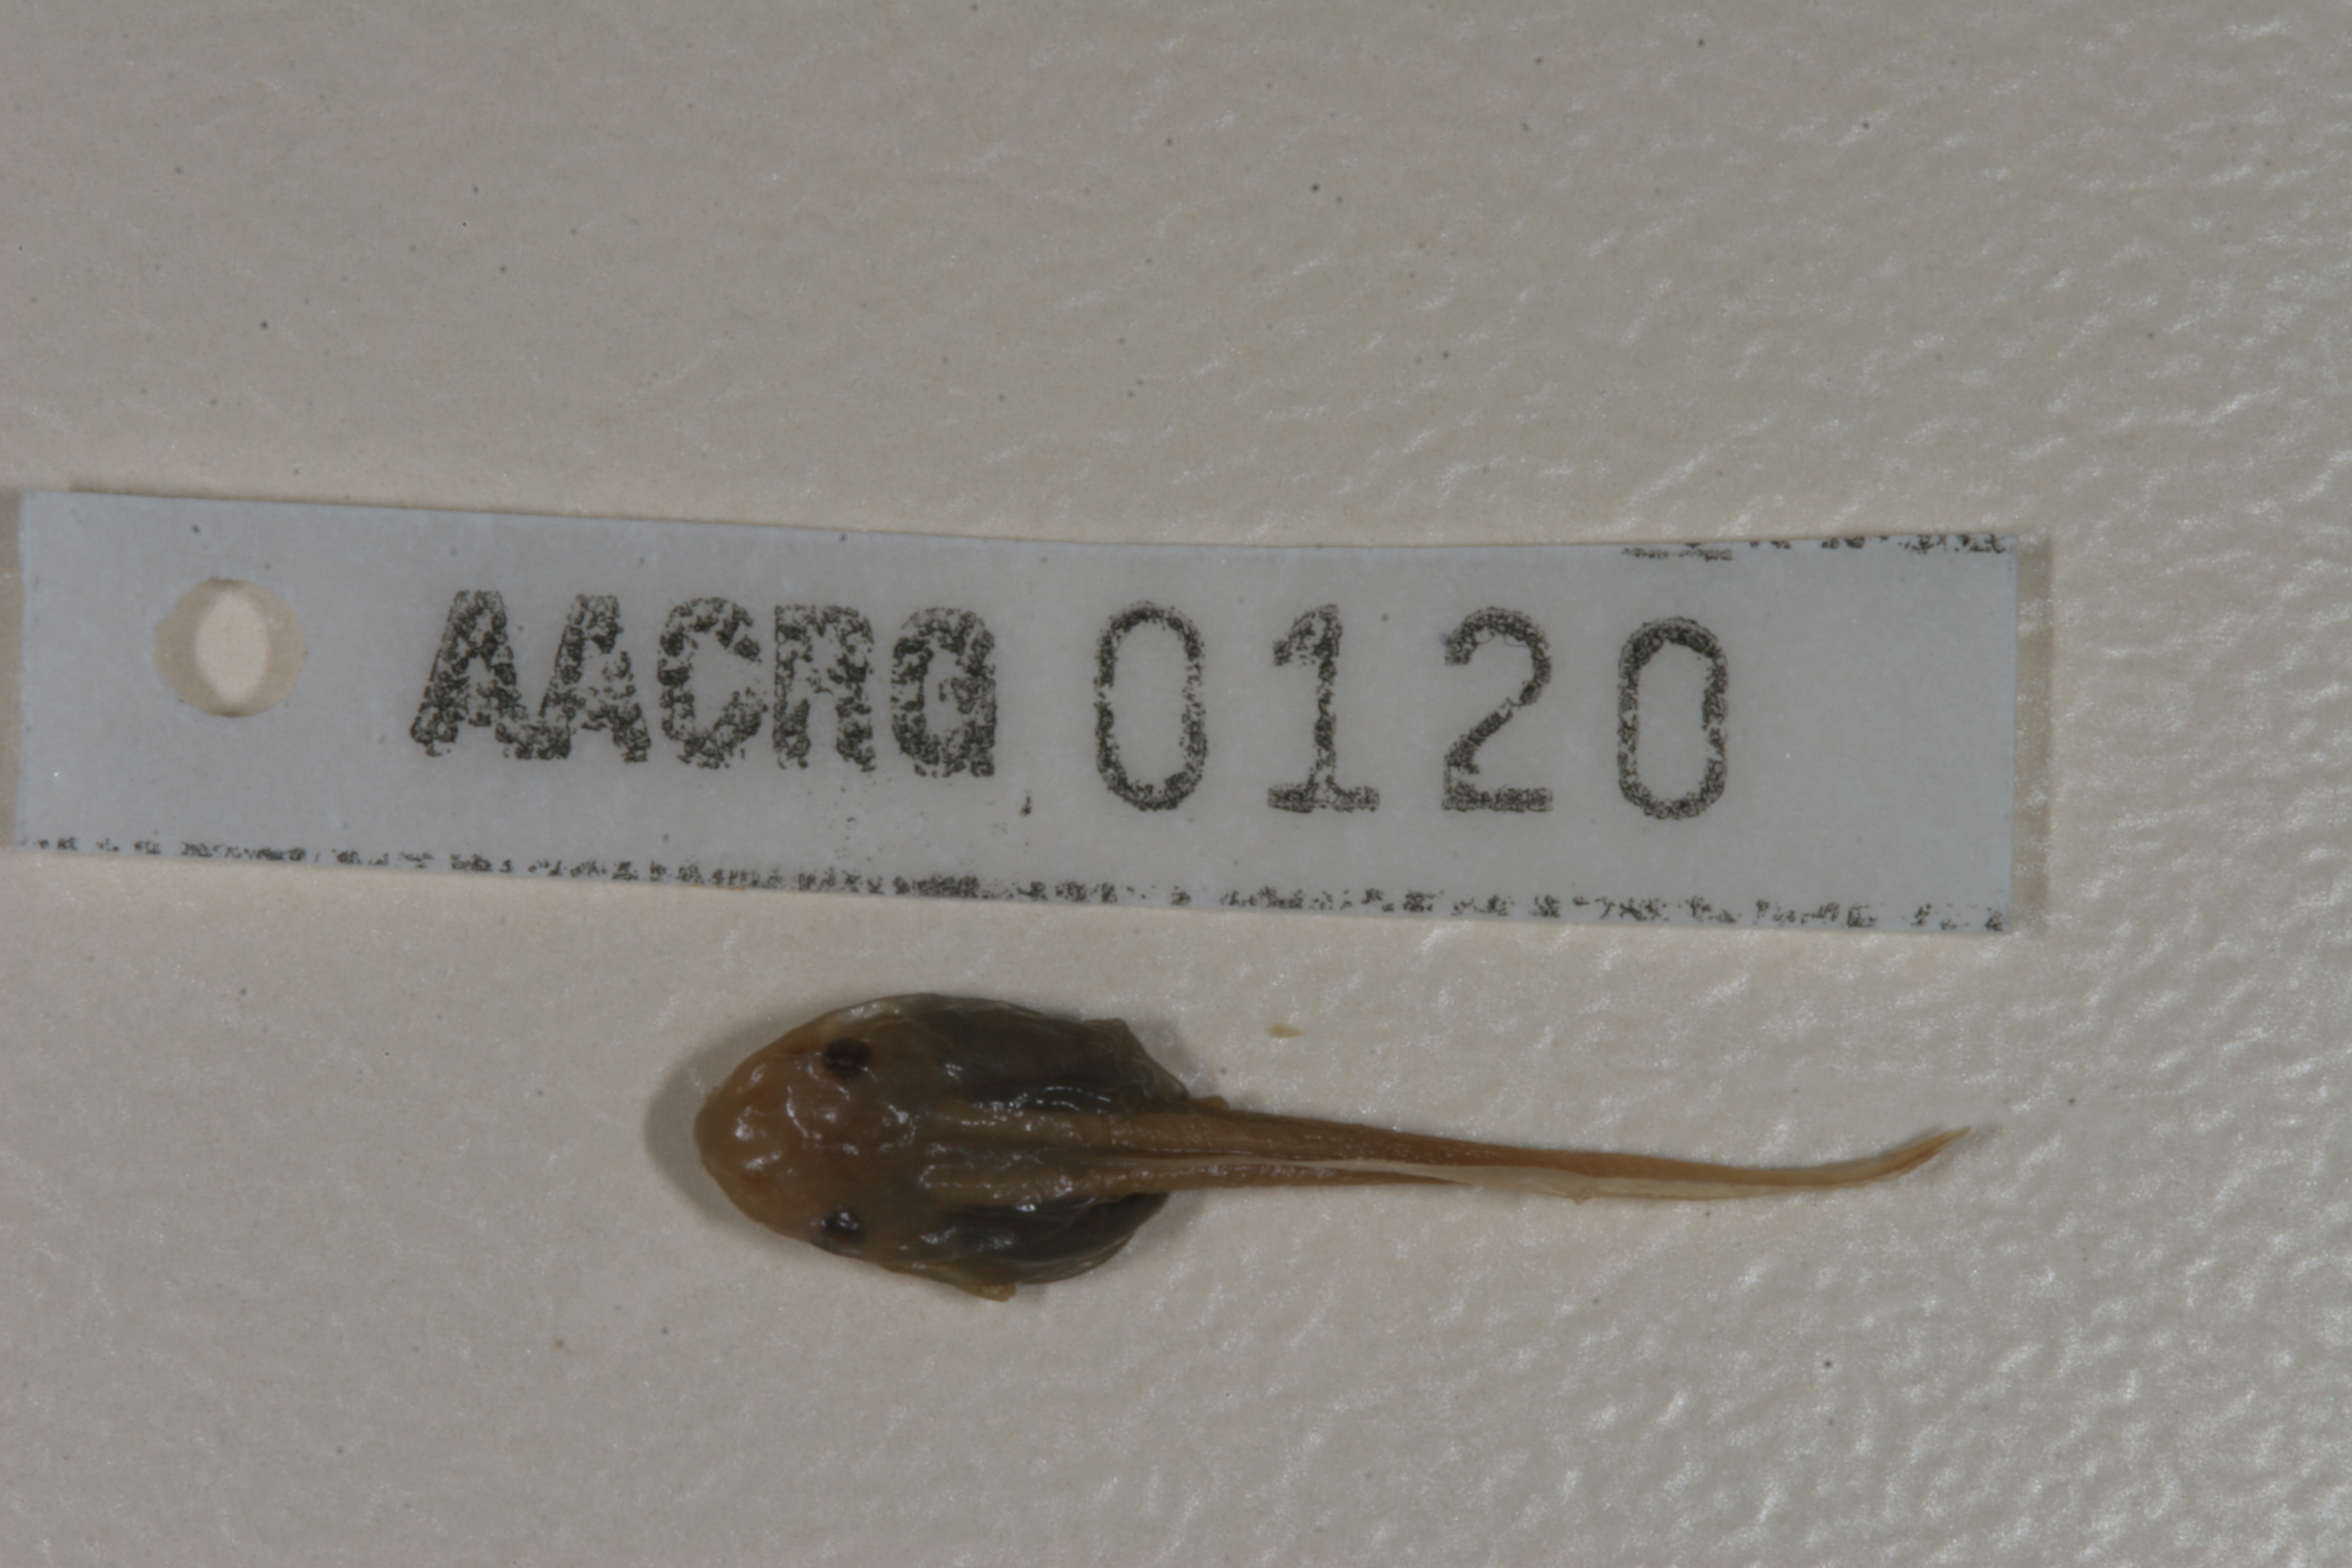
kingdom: Animalia
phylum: Chordata
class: Amphibia
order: Anura
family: Hyperoliidae
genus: Hyperolius
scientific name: Hyperolius marmoratus
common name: Painted reed frog
